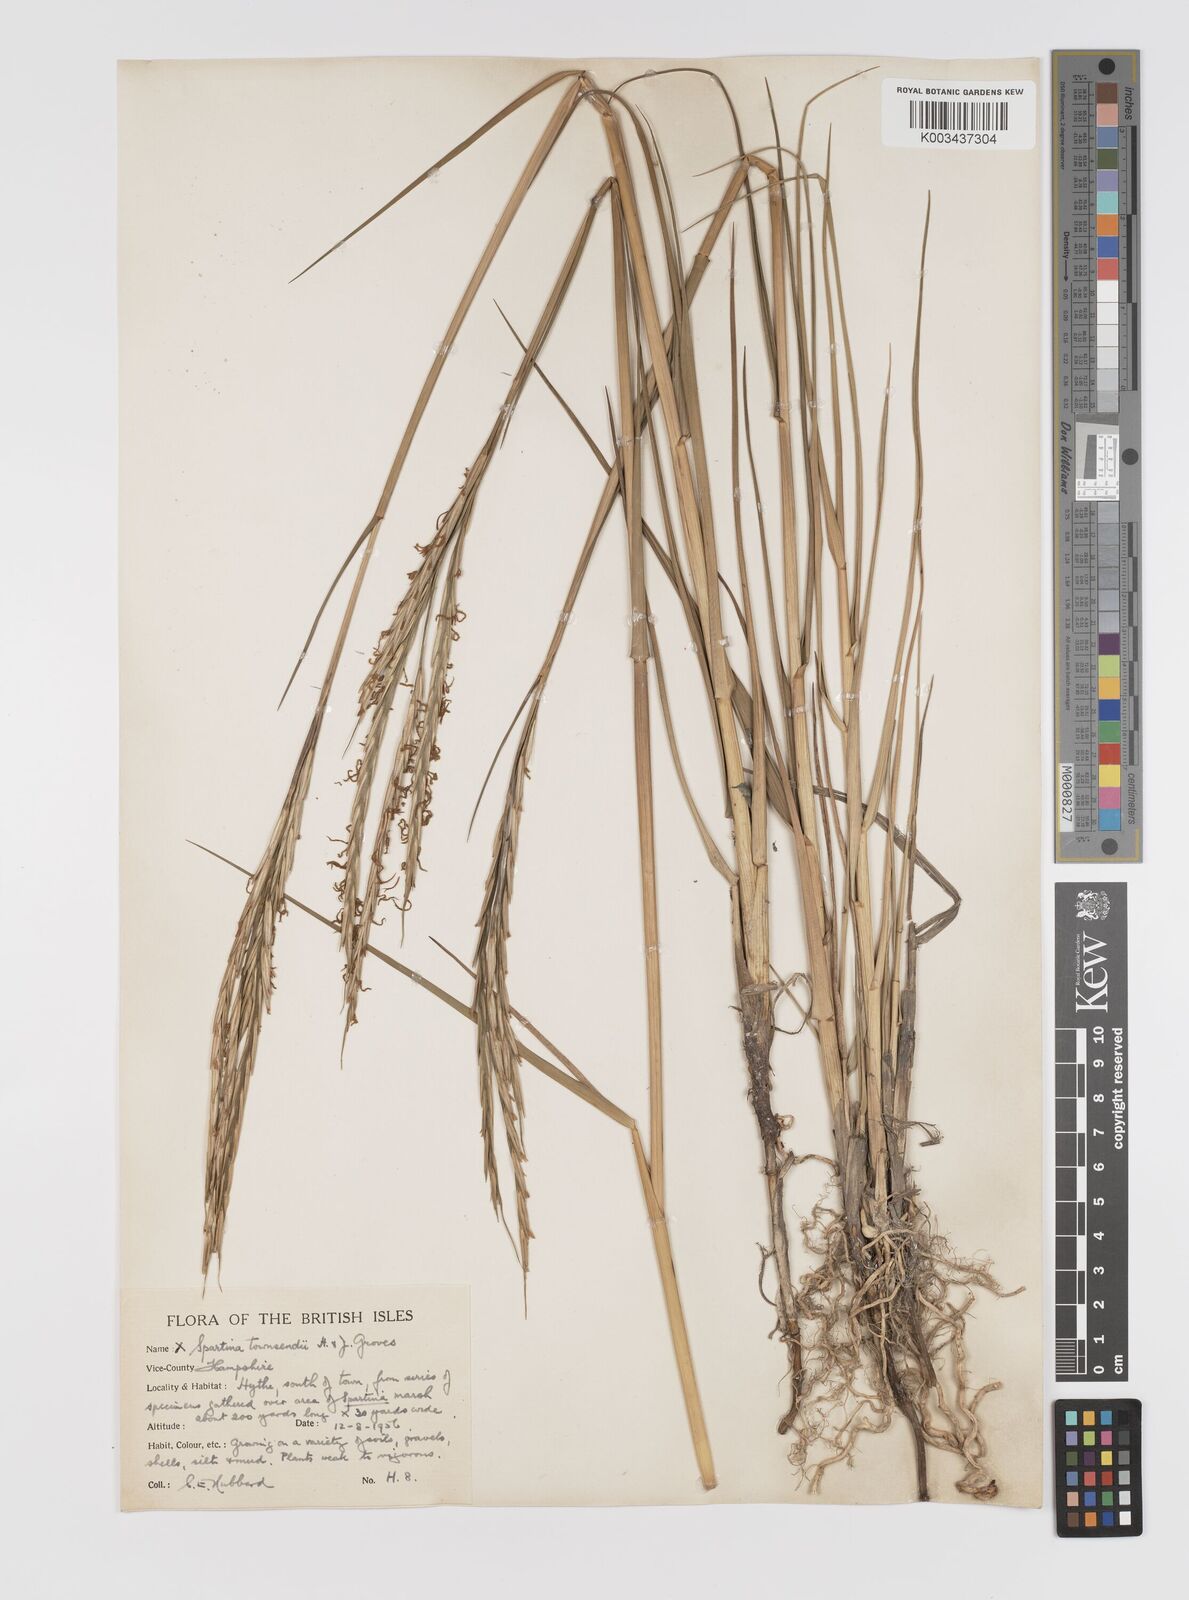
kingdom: Plantae
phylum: Tracheophyta
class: Liliopsida
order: Poales
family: Poaceae
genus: Sporobolus
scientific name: Sporobolus townsendii
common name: Townsend's cordgrass
